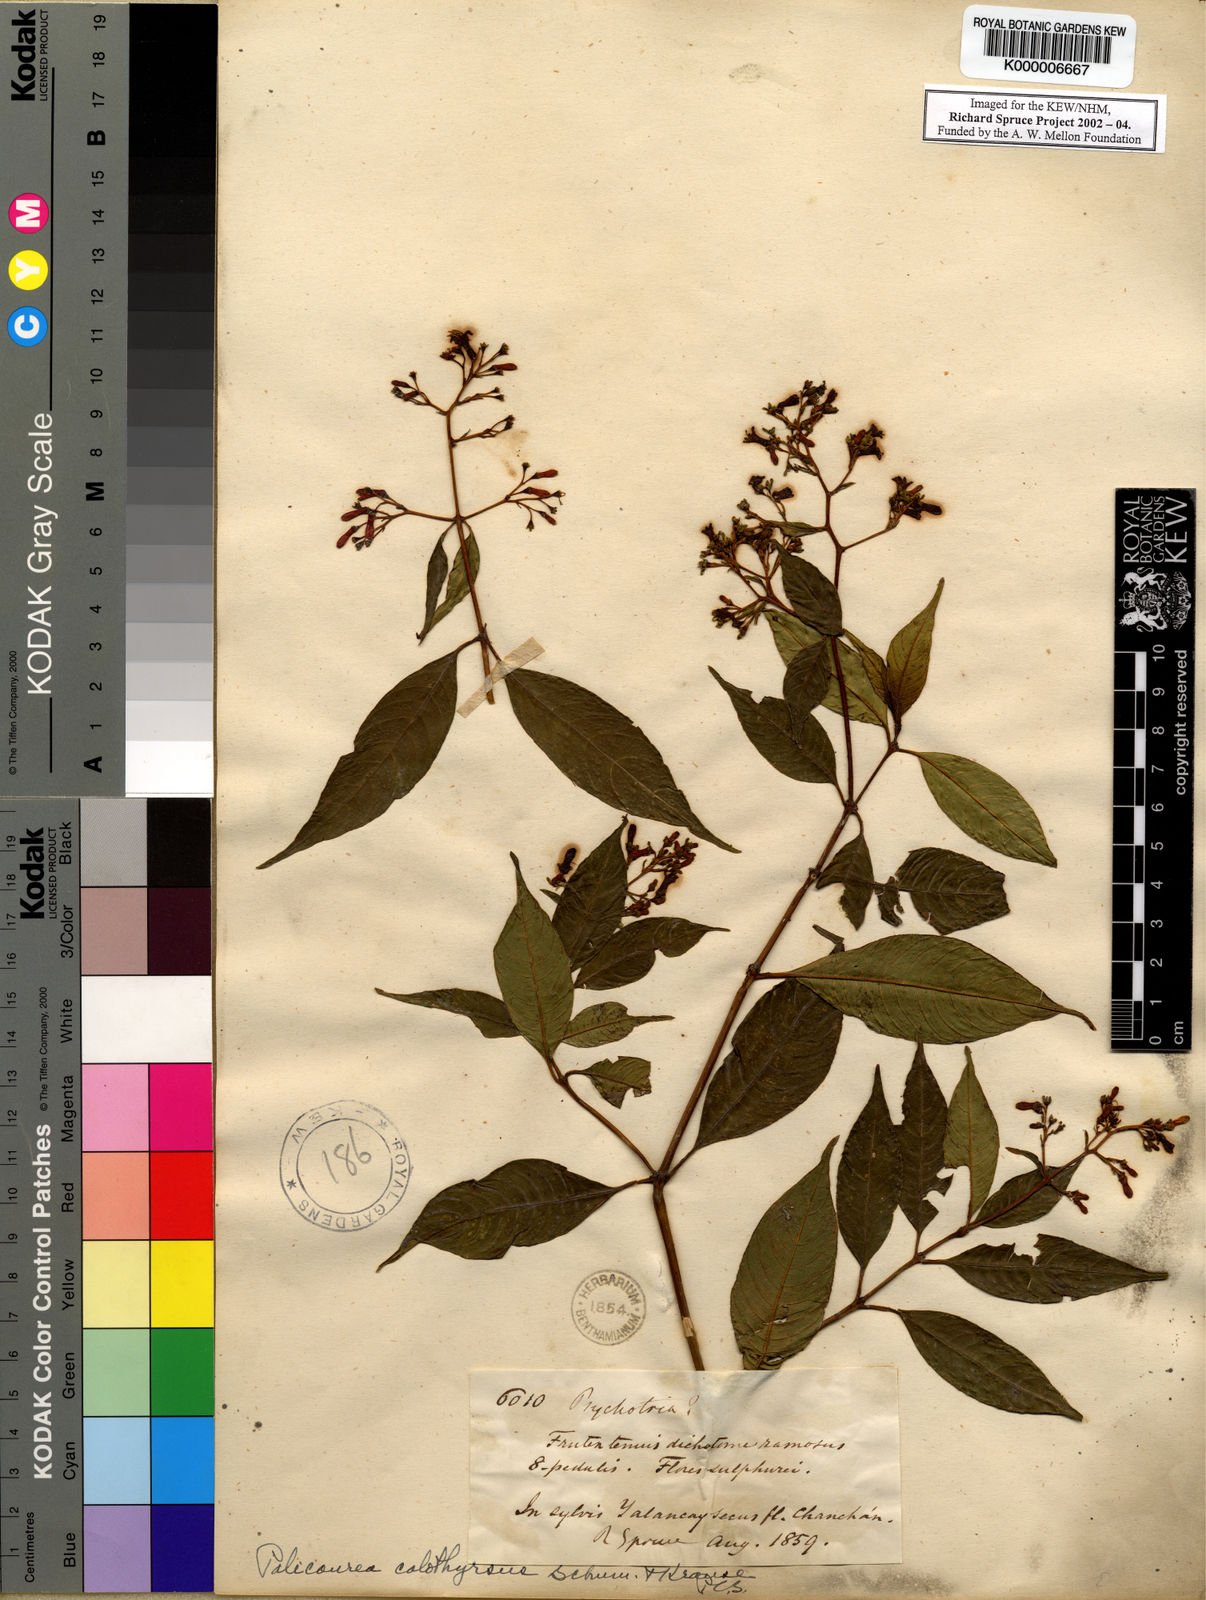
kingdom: Plantae
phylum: Tracheophyta
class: Magnoliopsida
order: Gentianales
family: Rubiaceae
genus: Palicourea
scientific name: Palicourea calothyrsus
